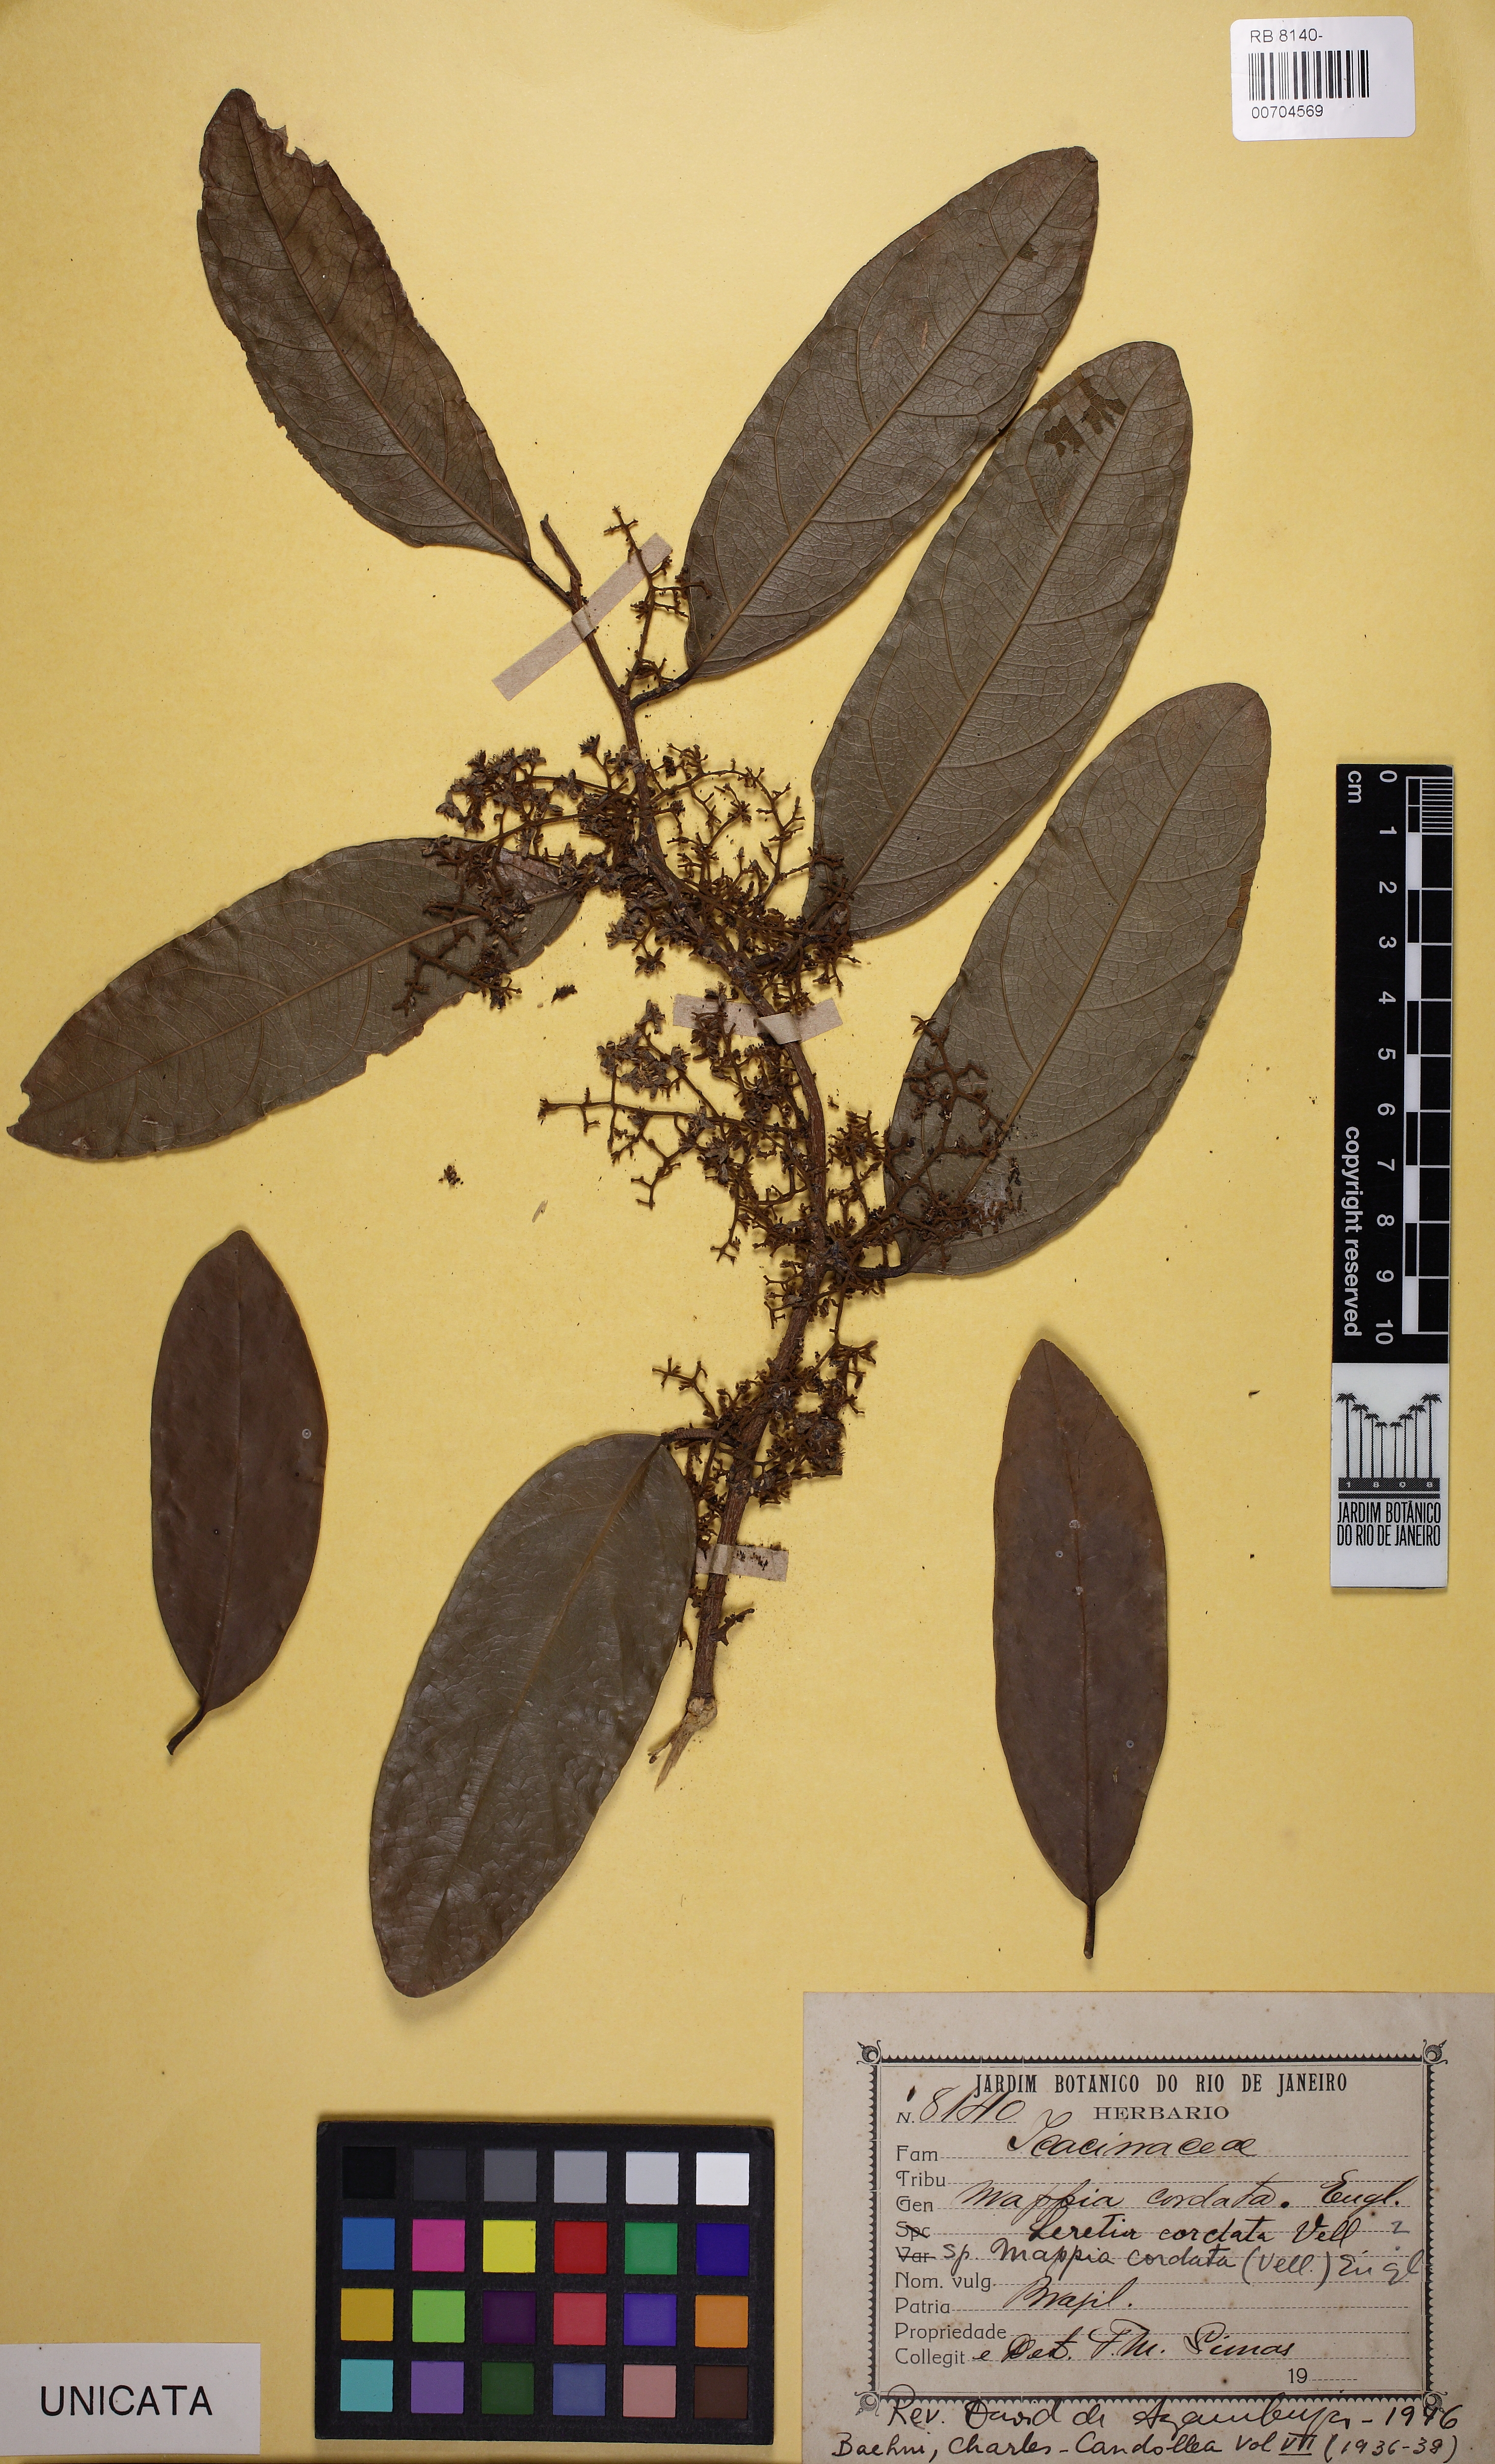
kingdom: Plantae
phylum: Tracheophyta
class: Magnoliopsida
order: Icacinales
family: Icacinaceae
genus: Leretia
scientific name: Leretia cordata
